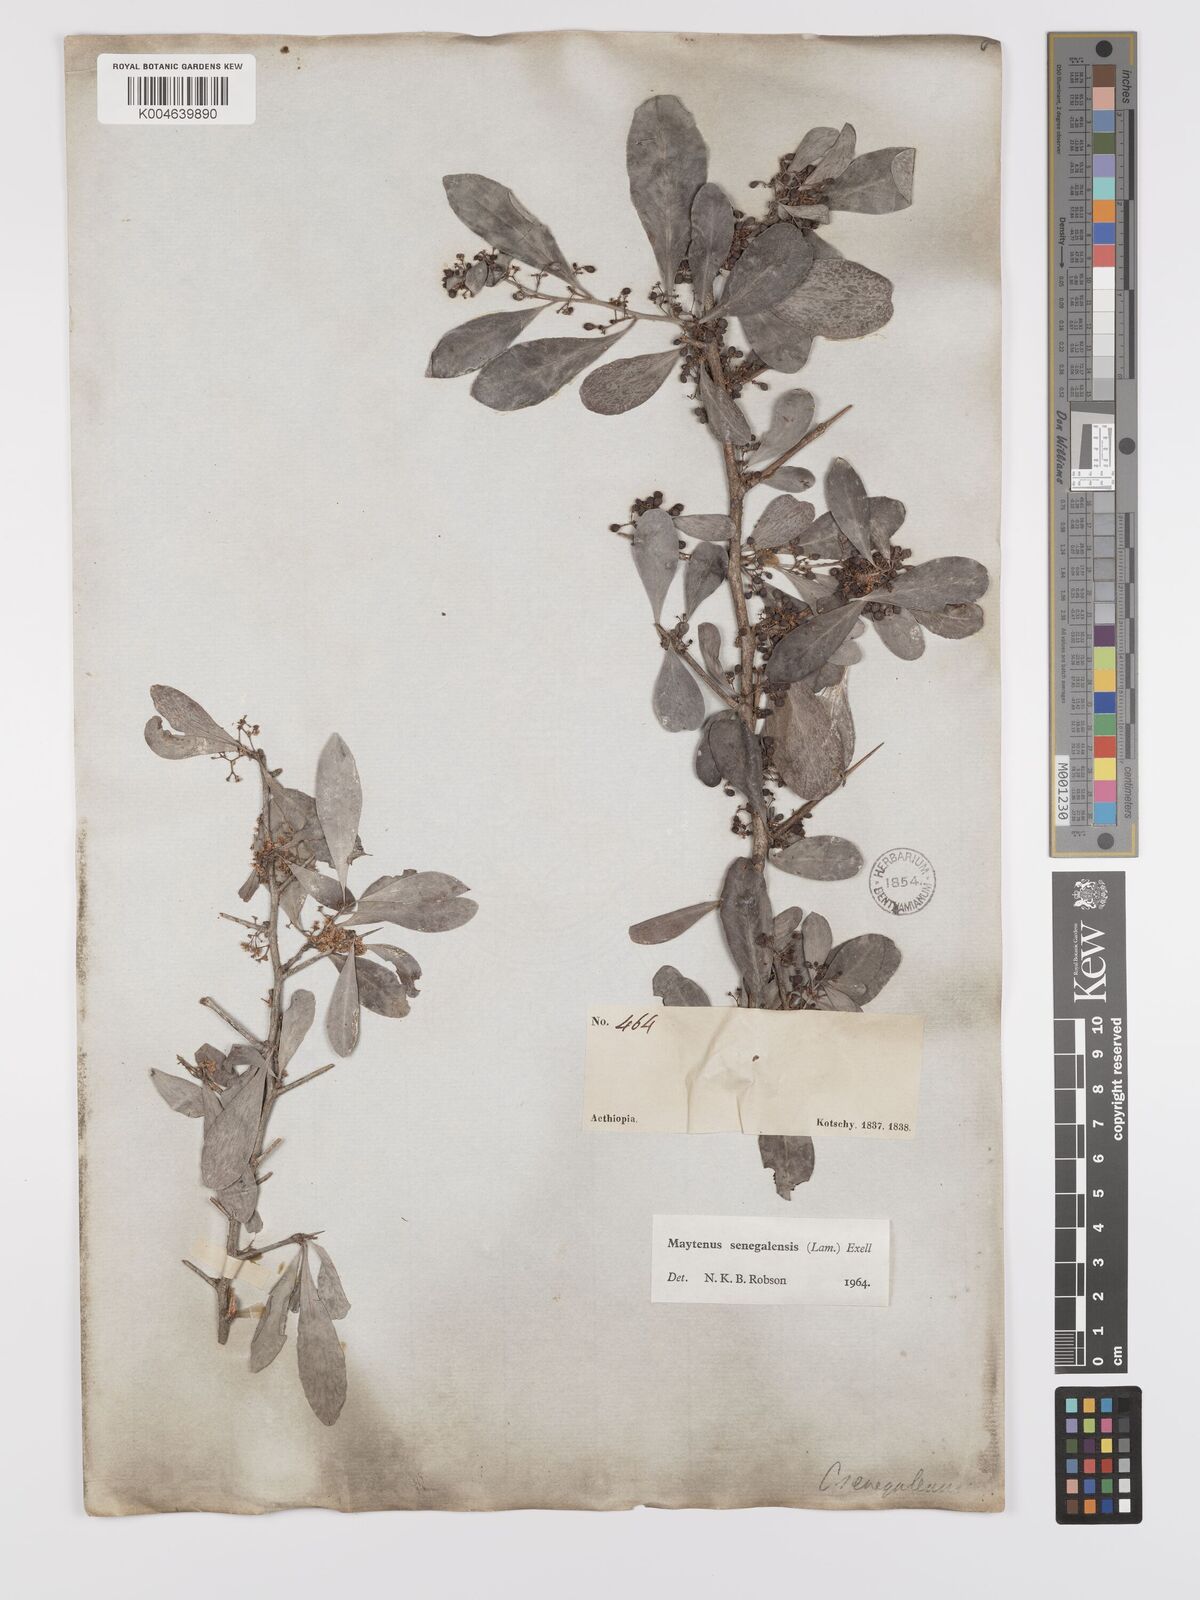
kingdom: Plantae
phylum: Tracheophyta
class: Magnoliopsida
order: Celastrales
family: Celastraceae
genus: Gymnosporia
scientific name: Gymnosporia senegalensis
